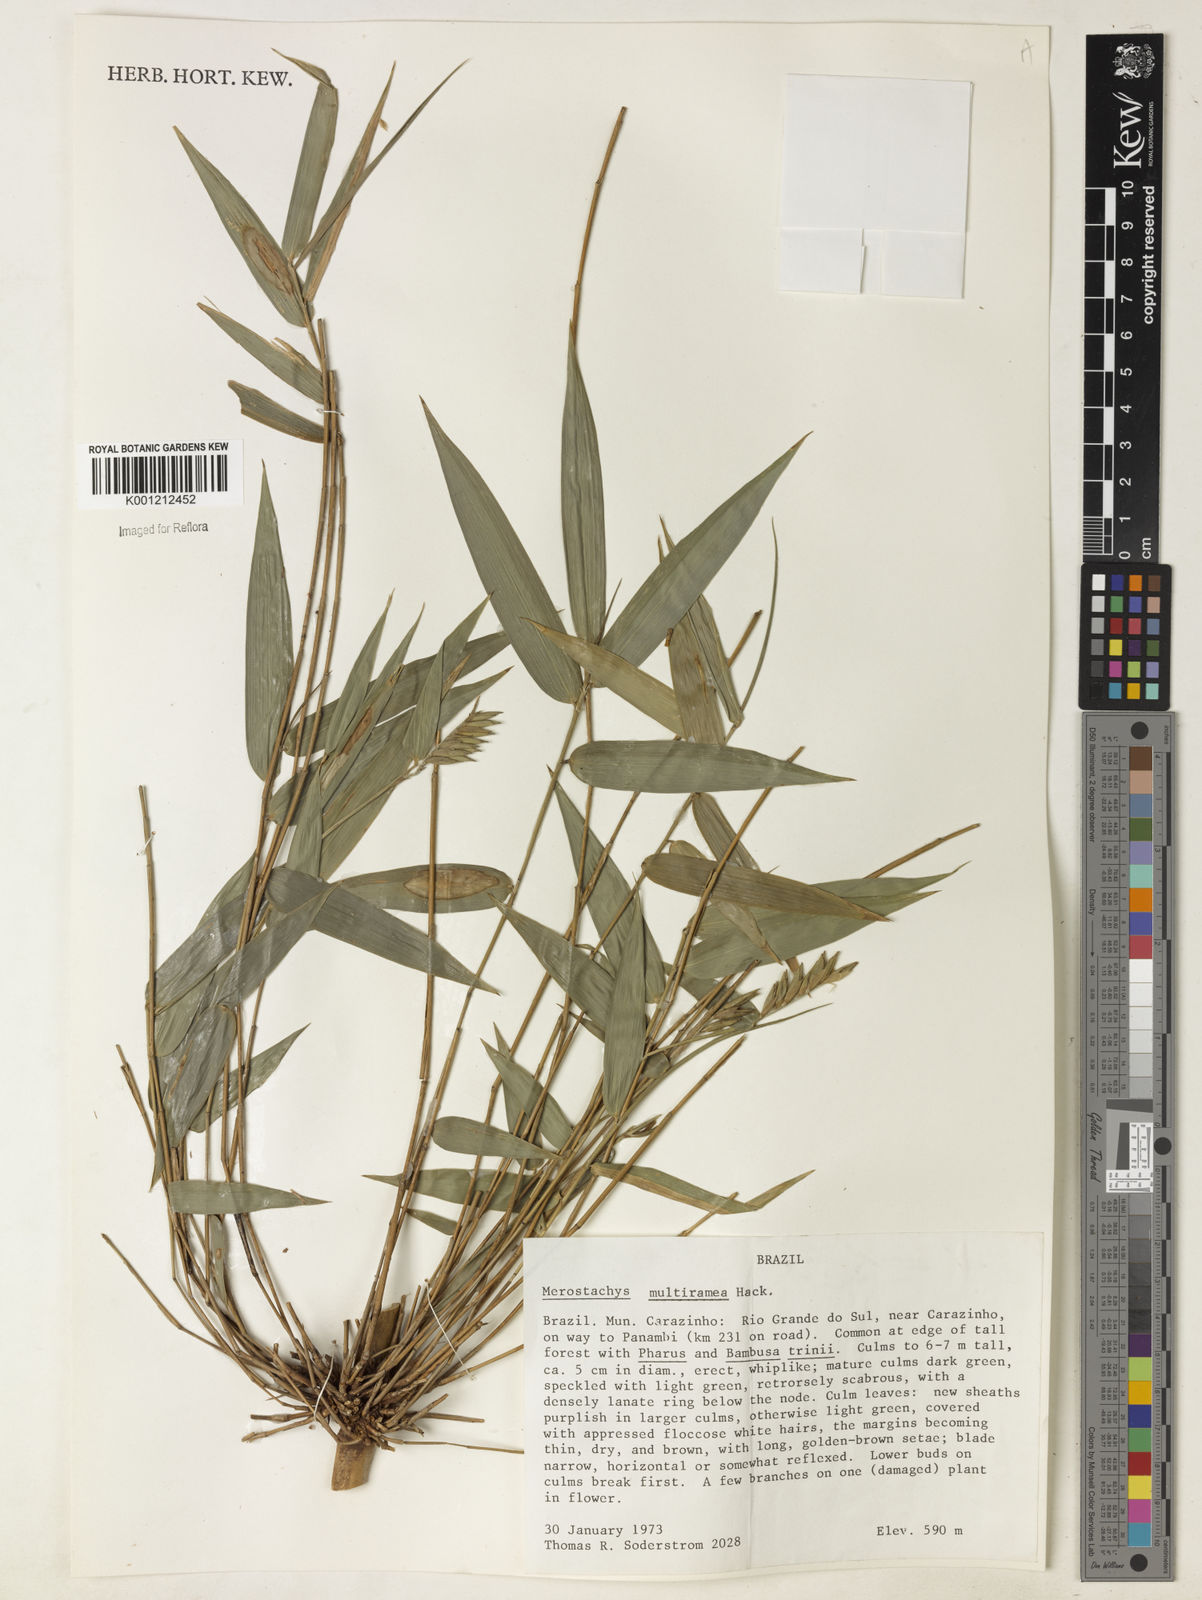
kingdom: Plantae
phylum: Tracheophyta
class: Liliopsida
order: Poales
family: Poaceae
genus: Merostachys
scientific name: Merostachys multiramea
